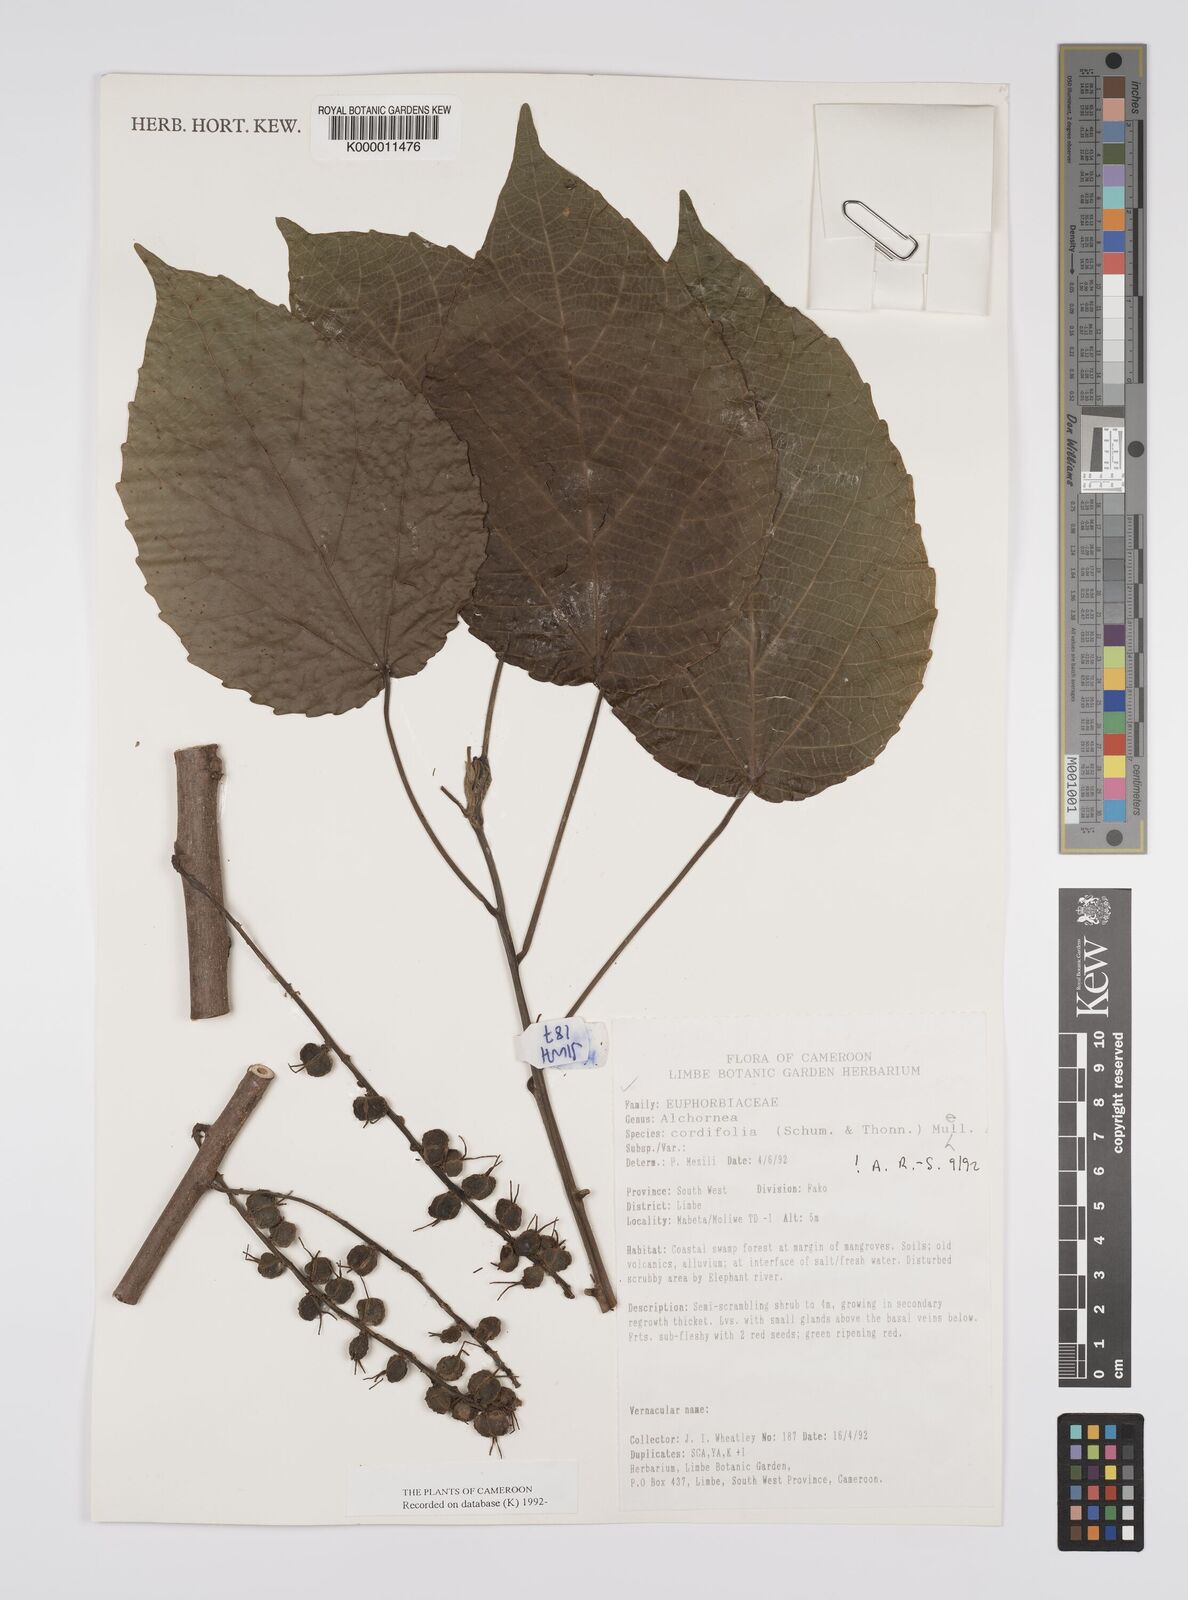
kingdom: Plantae
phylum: Tracheophyta
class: Magnoliopsida
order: Malpighiales
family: Euphorbiaceae
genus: Alchornea
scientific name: Alchornea
